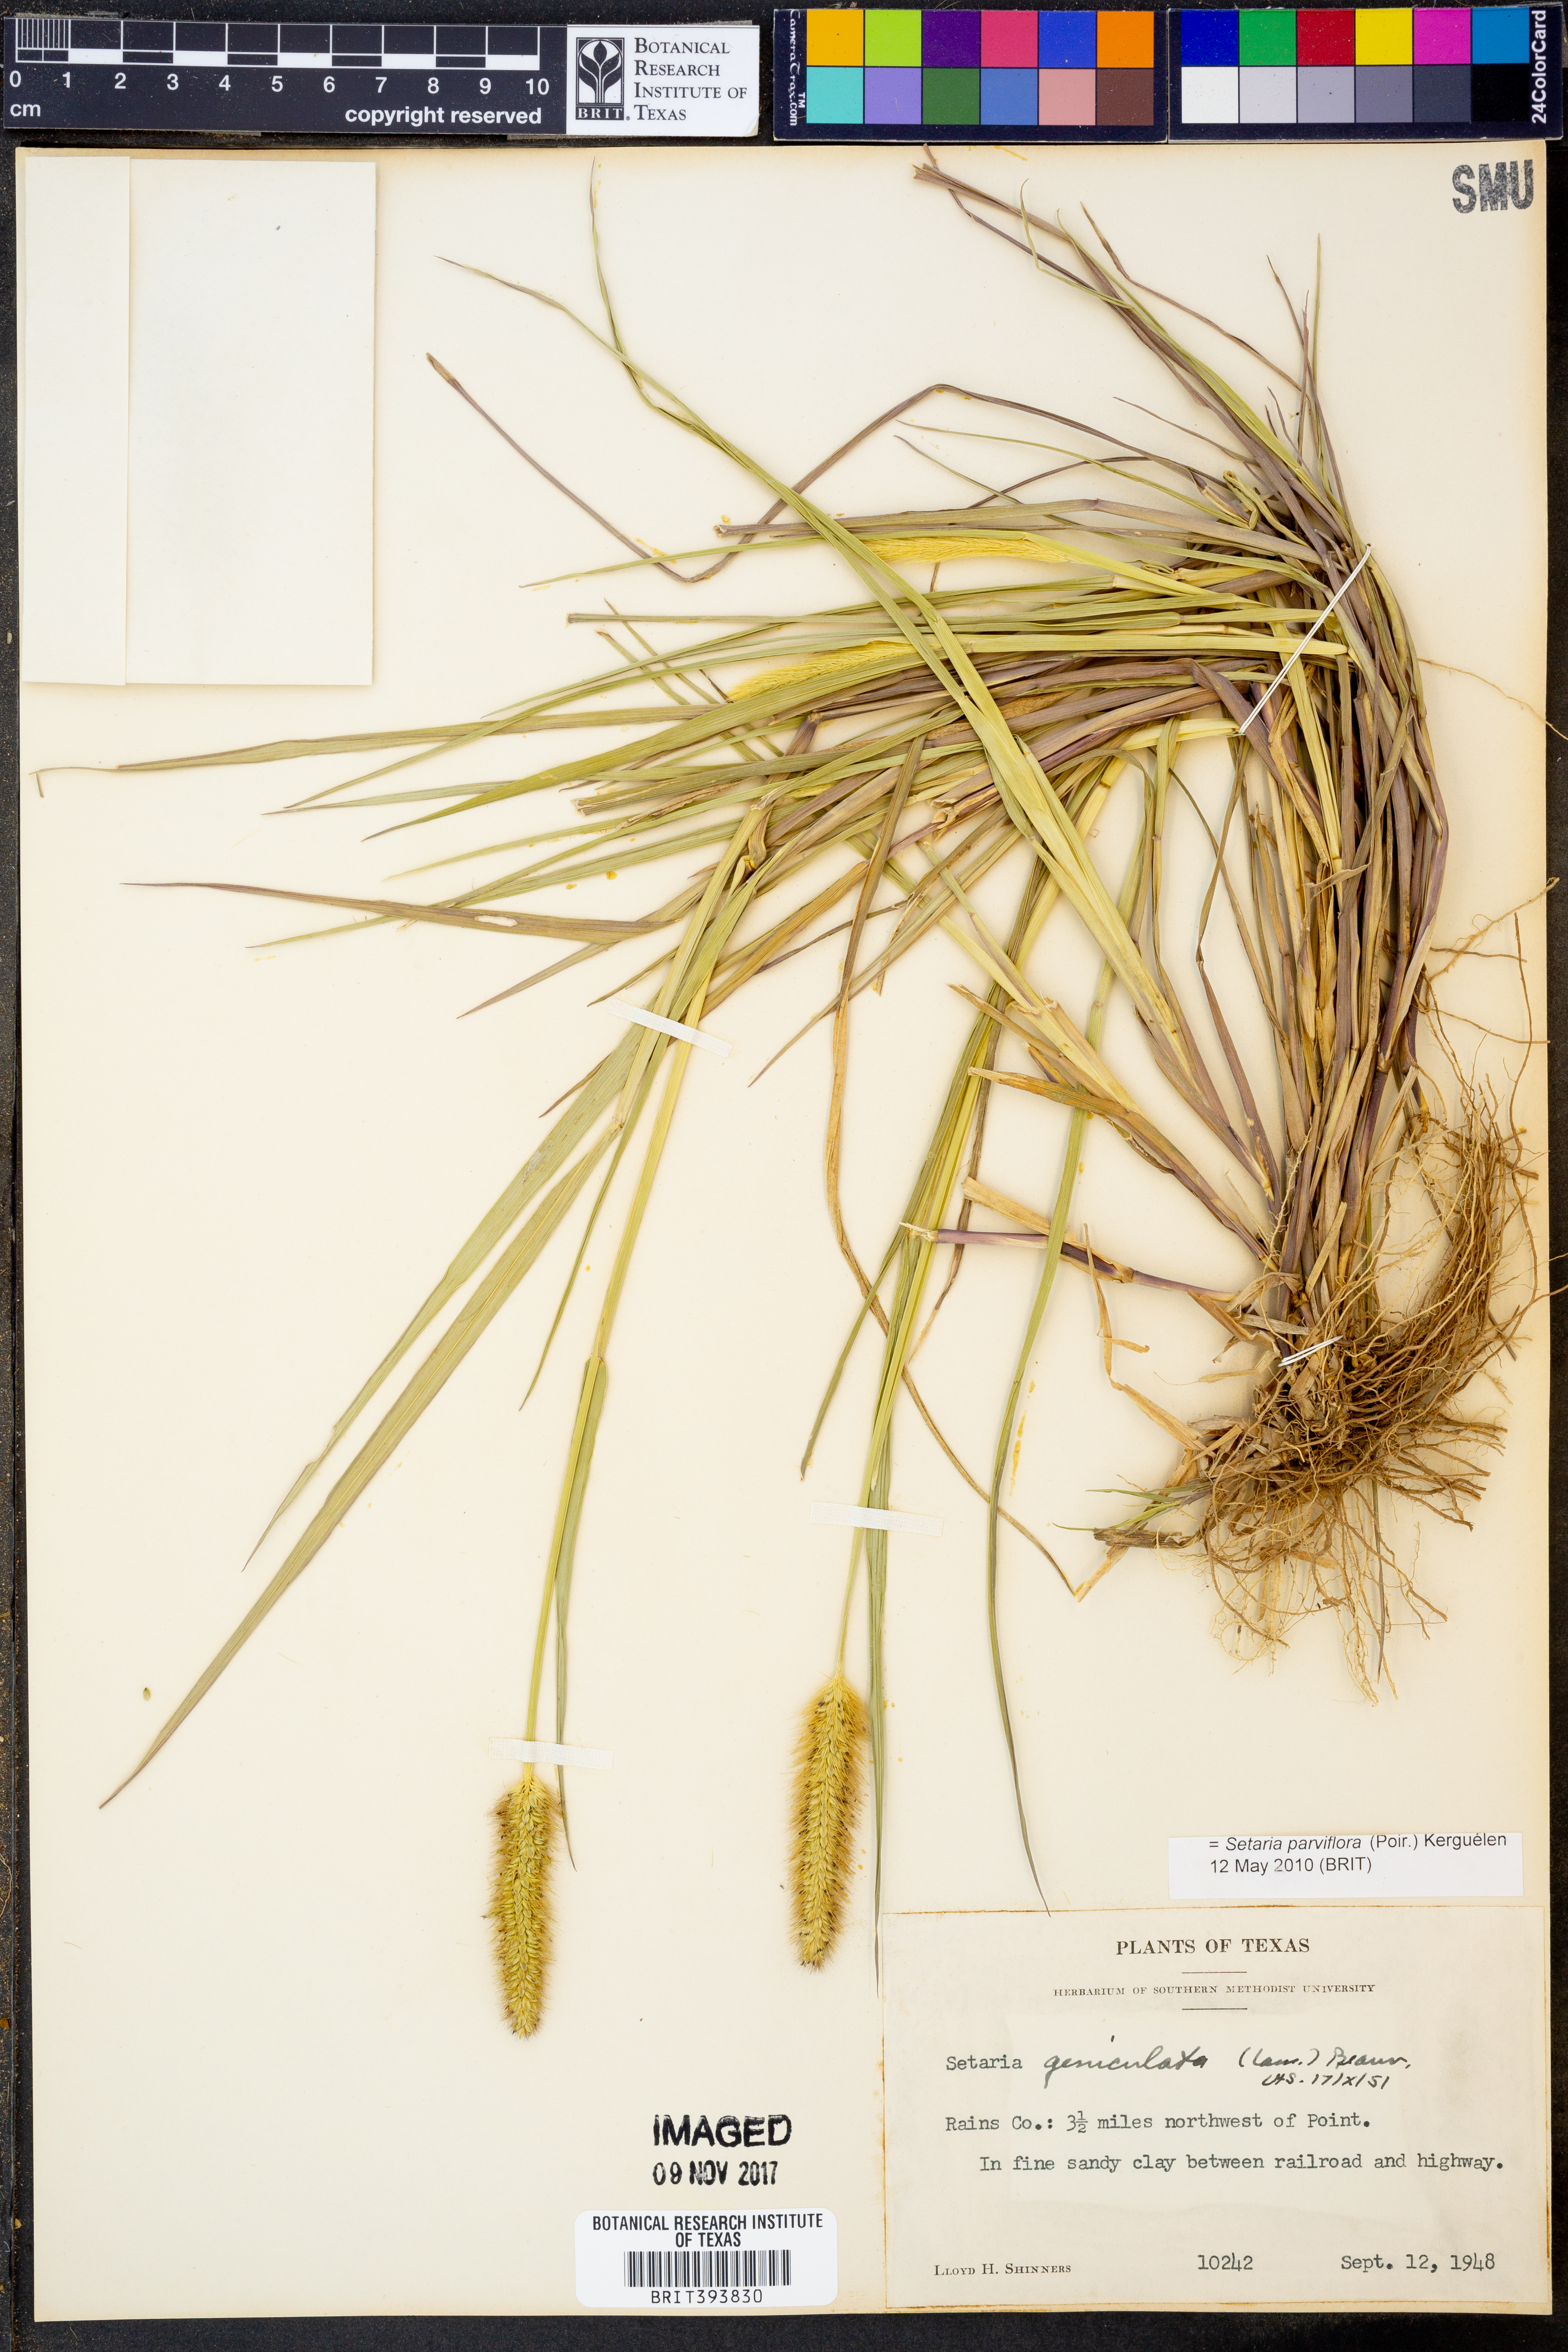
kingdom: Plantae
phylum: Tracheophyta
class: Liliopsida
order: Poales
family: Poaceae
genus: Setaria
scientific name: Setaria parviflora
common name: Knotroot bristle-grass
